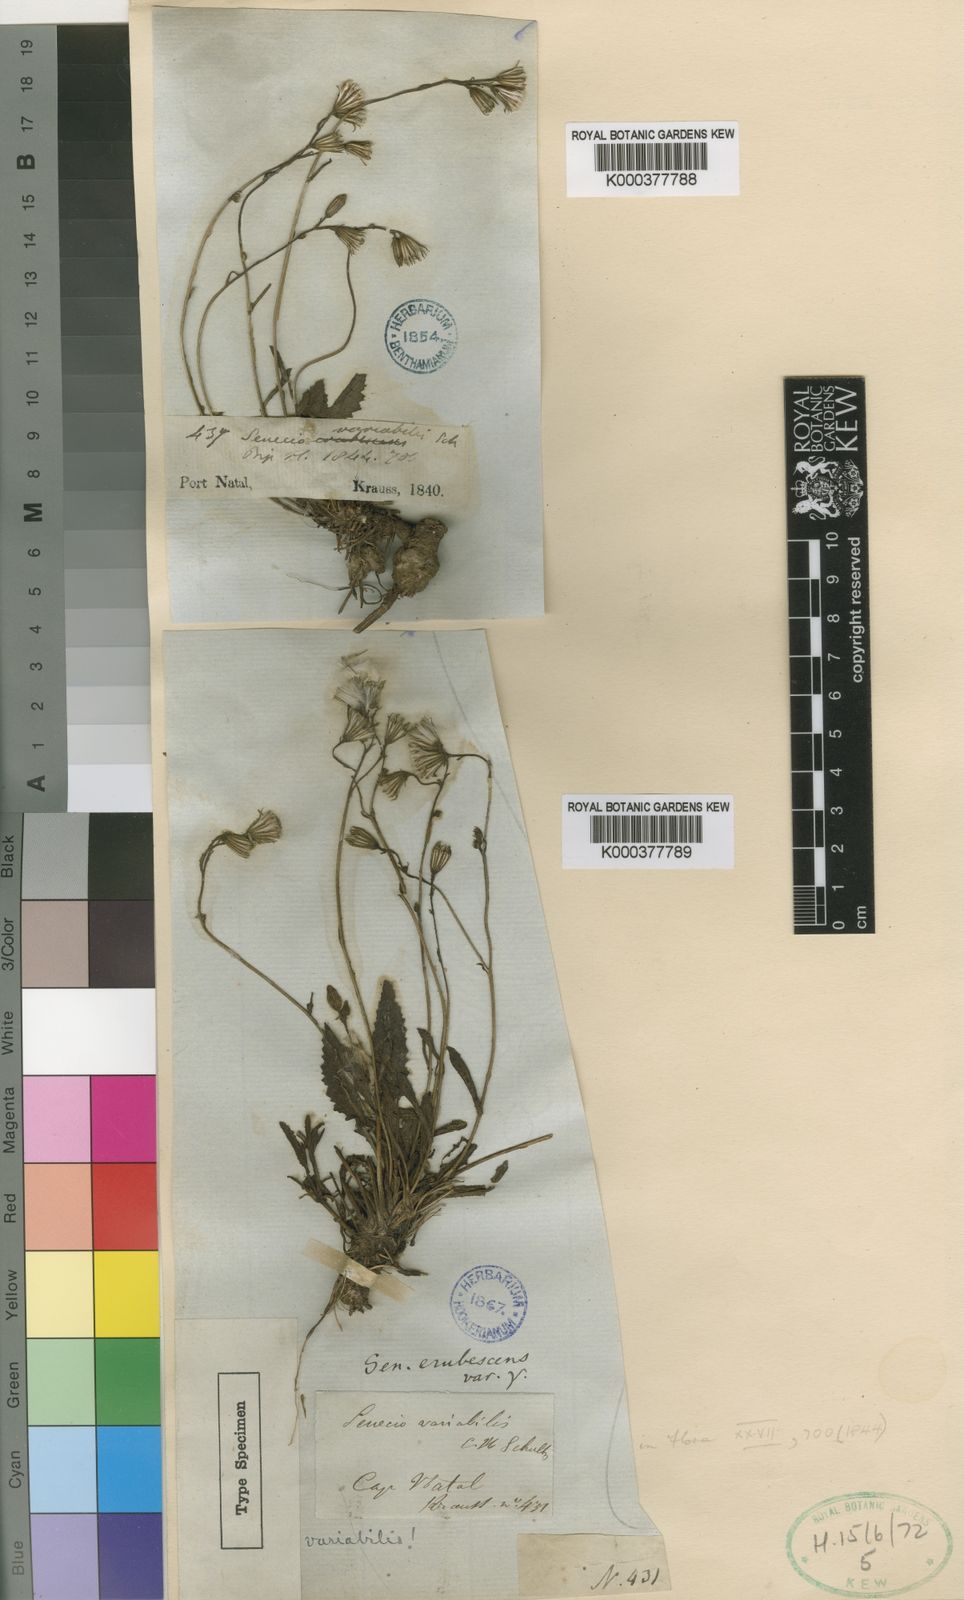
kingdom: Plantae
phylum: Tracheophyta
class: Magnoliopsida
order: Asterales
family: Asteraceae
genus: Senecio
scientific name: Senecio variabilis
